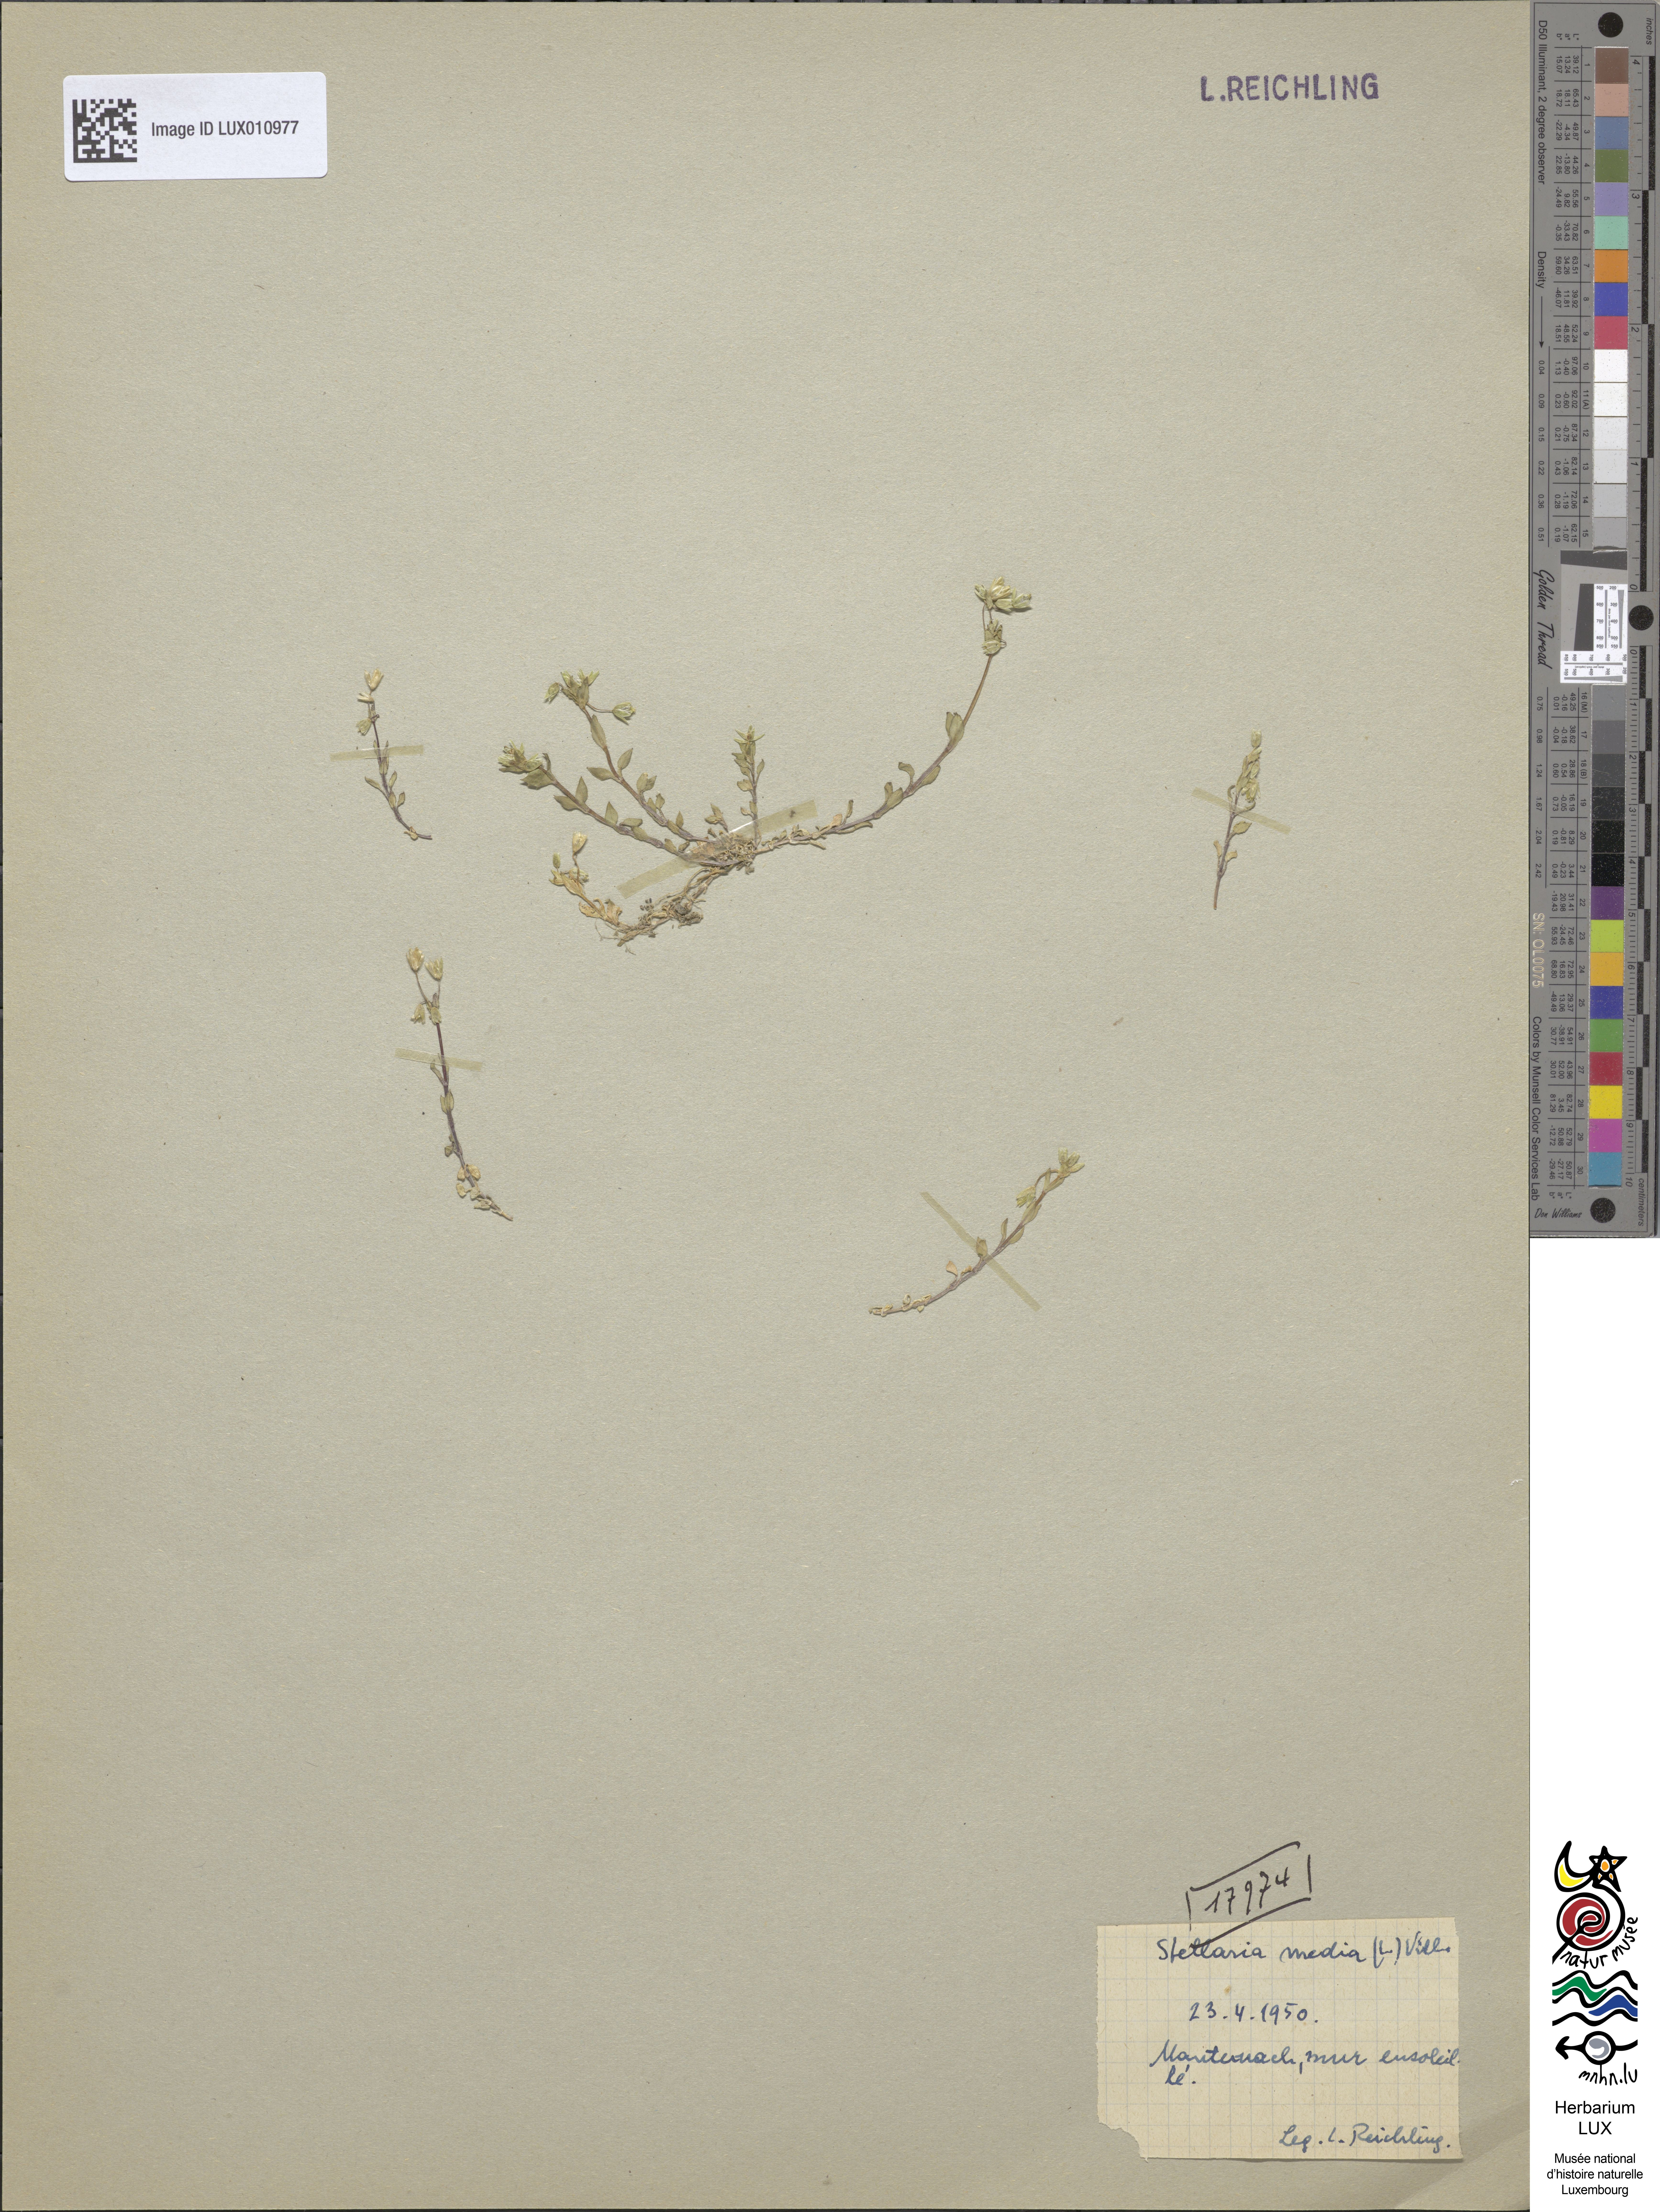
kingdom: Plantae
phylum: Tracheophyta
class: Magnoliopsida
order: Caryophyllales
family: Caryophyllaceae
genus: Stellaria
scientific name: Stellaria media
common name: Common chickweed
